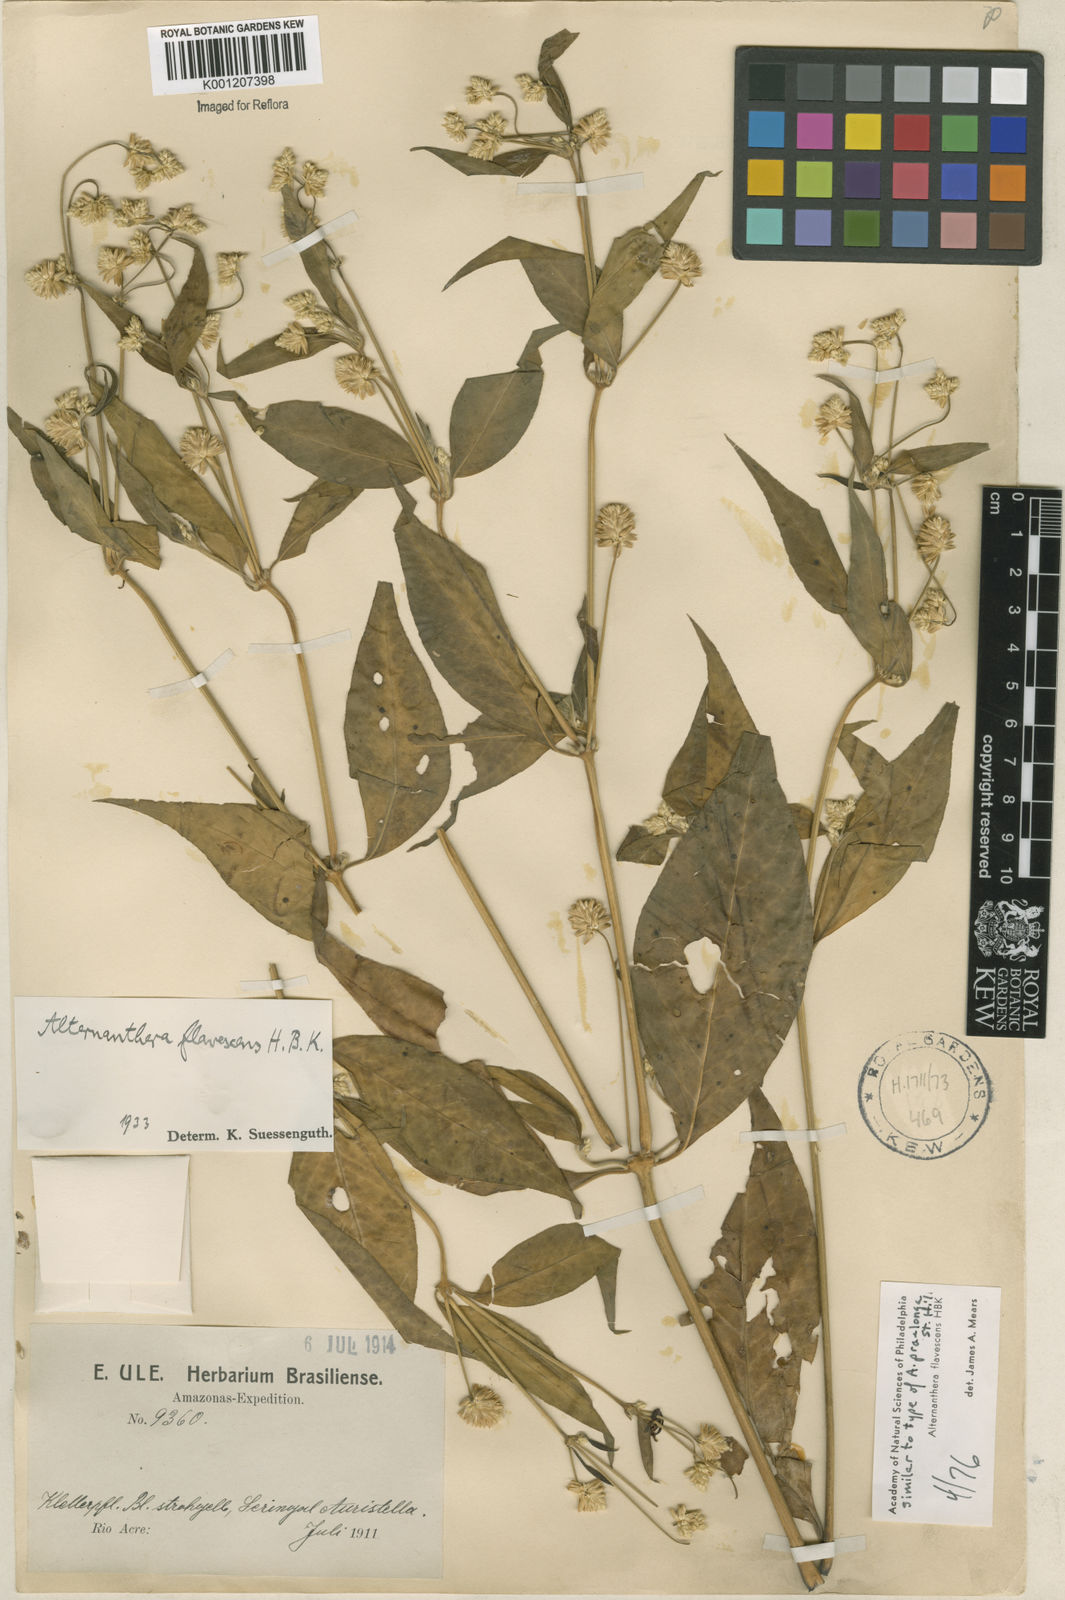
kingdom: Plantae
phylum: Tracheophyta
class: Magnoliopsida
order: Caryophyllales
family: Amaranthaceae
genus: Alternanthera
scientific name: Alternanthera flavescens
